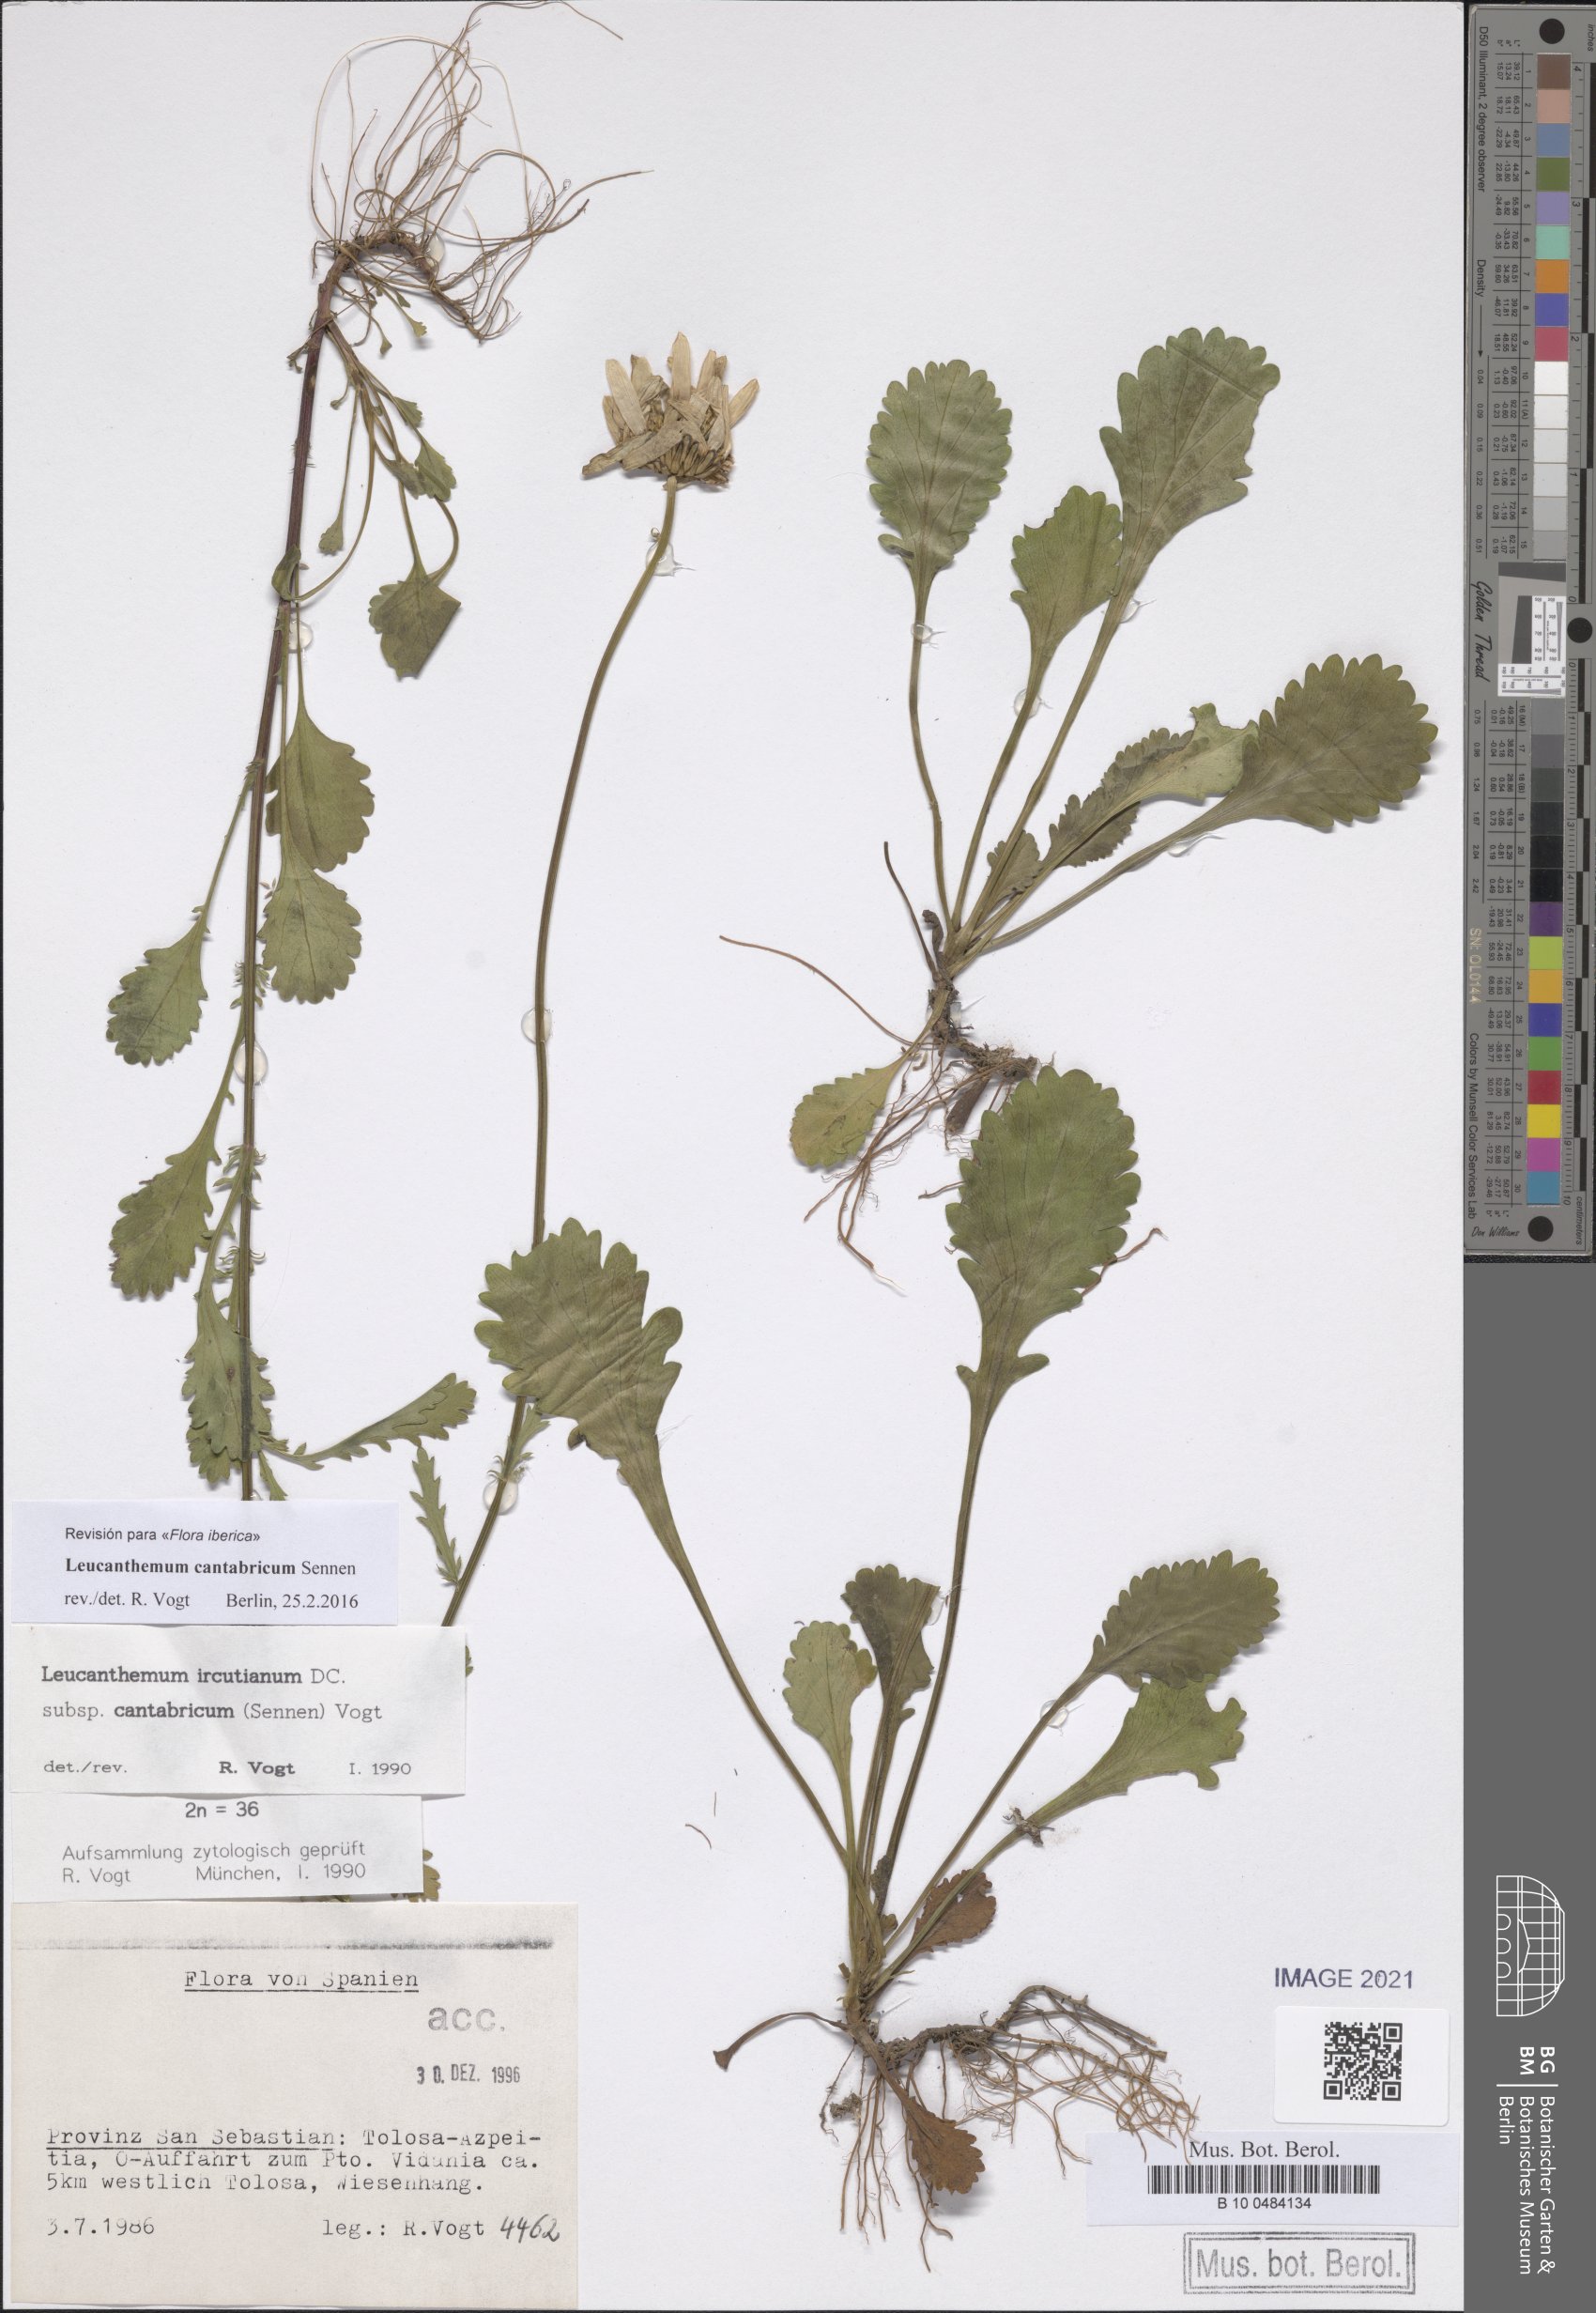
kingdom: Plantae
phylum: Tracheophyta
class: Magnoliopsida
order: Asterales
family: Asteraceae
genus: Leucanthemum
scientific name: Leucanthemum cantabricum
